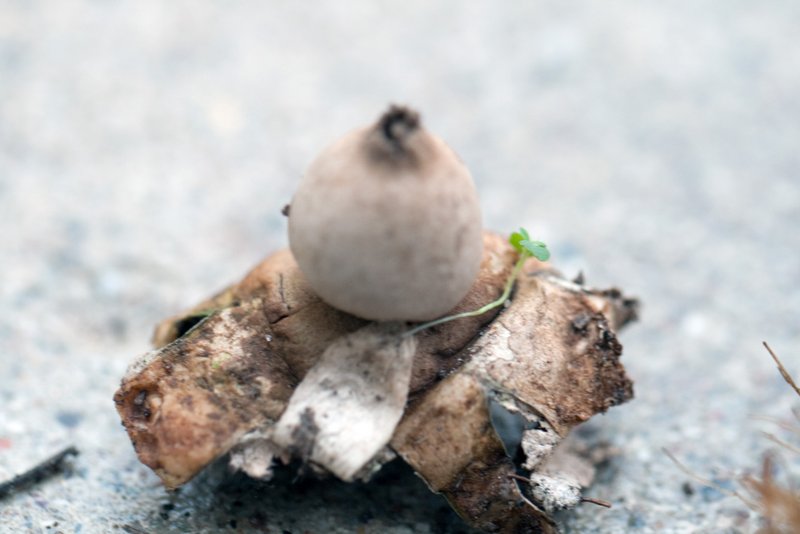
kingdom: Fungi
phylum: Basidiomycota
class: Agaricomycetes
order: Geastrales
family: Geastraceae
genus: Geastrum
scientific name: Geastrum fimbriatum
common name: frynset stjernebold
